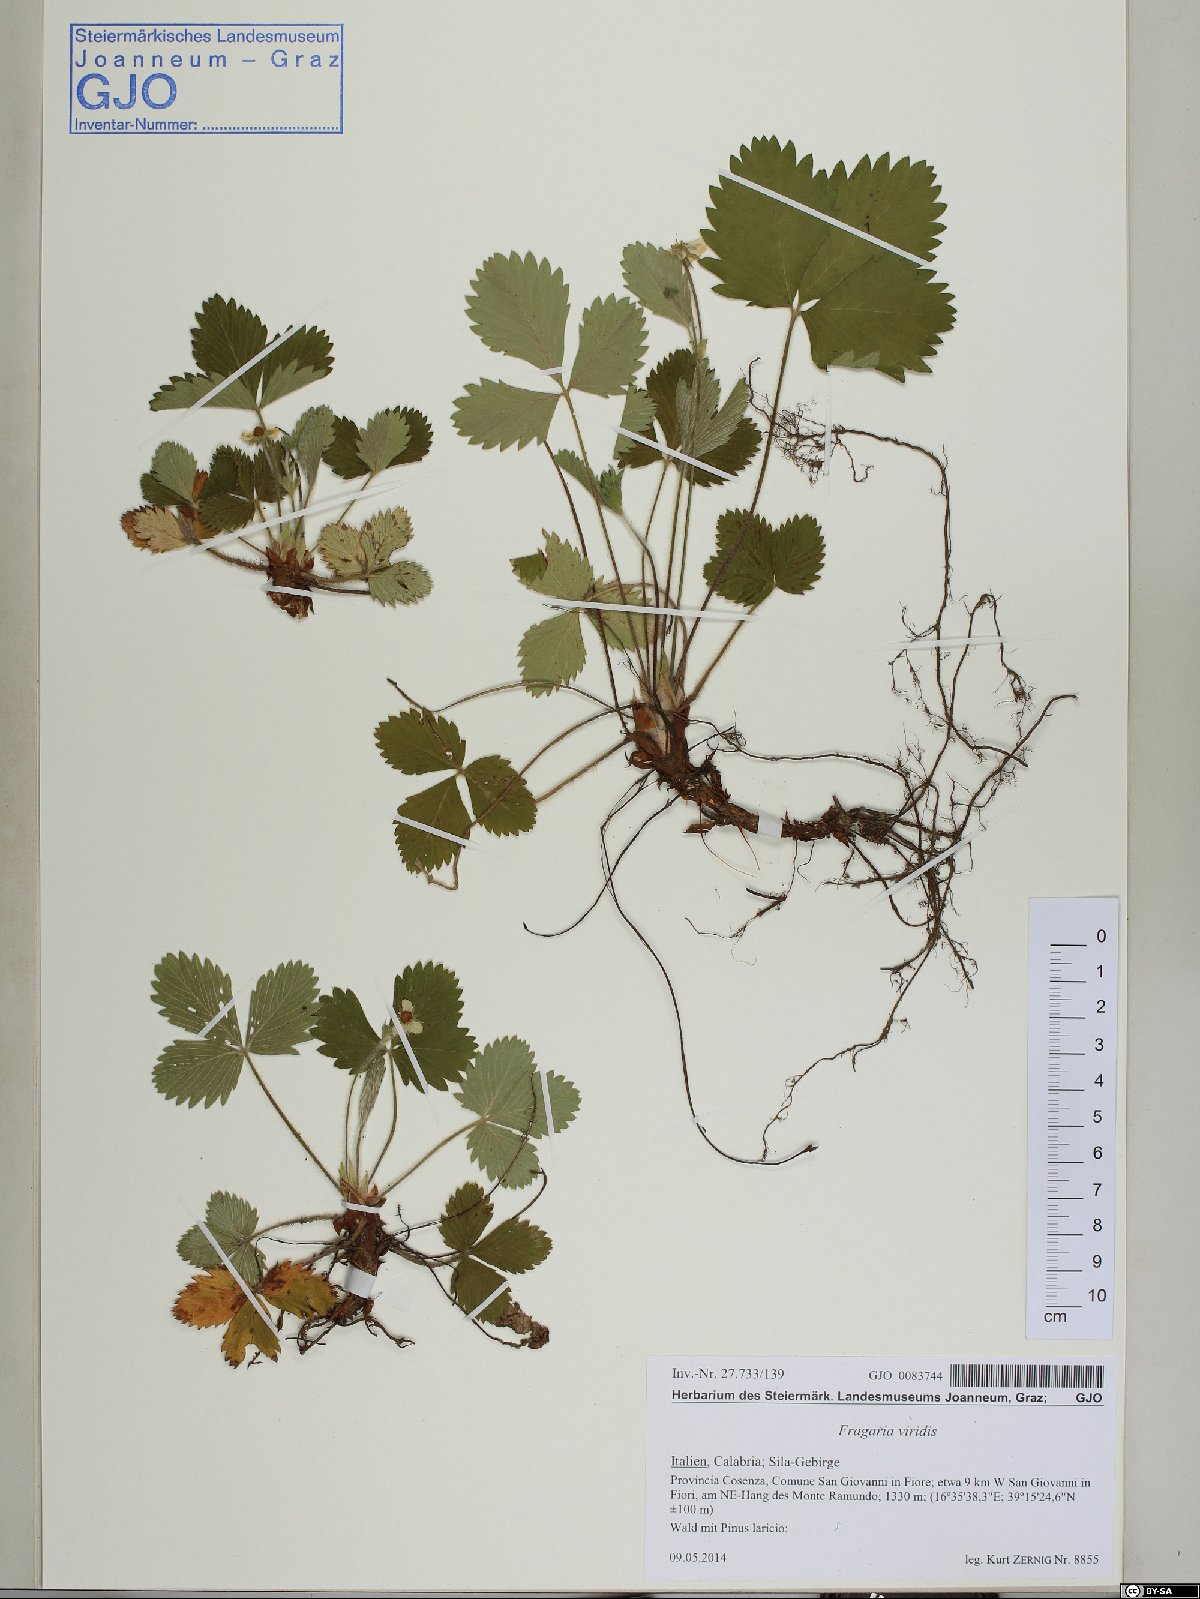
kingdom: Plantae
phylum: Tracheophyta
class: Magnoliopsida
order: Rosales
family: Rosaceae
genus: Fragaria
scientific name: Fragaria viridis
